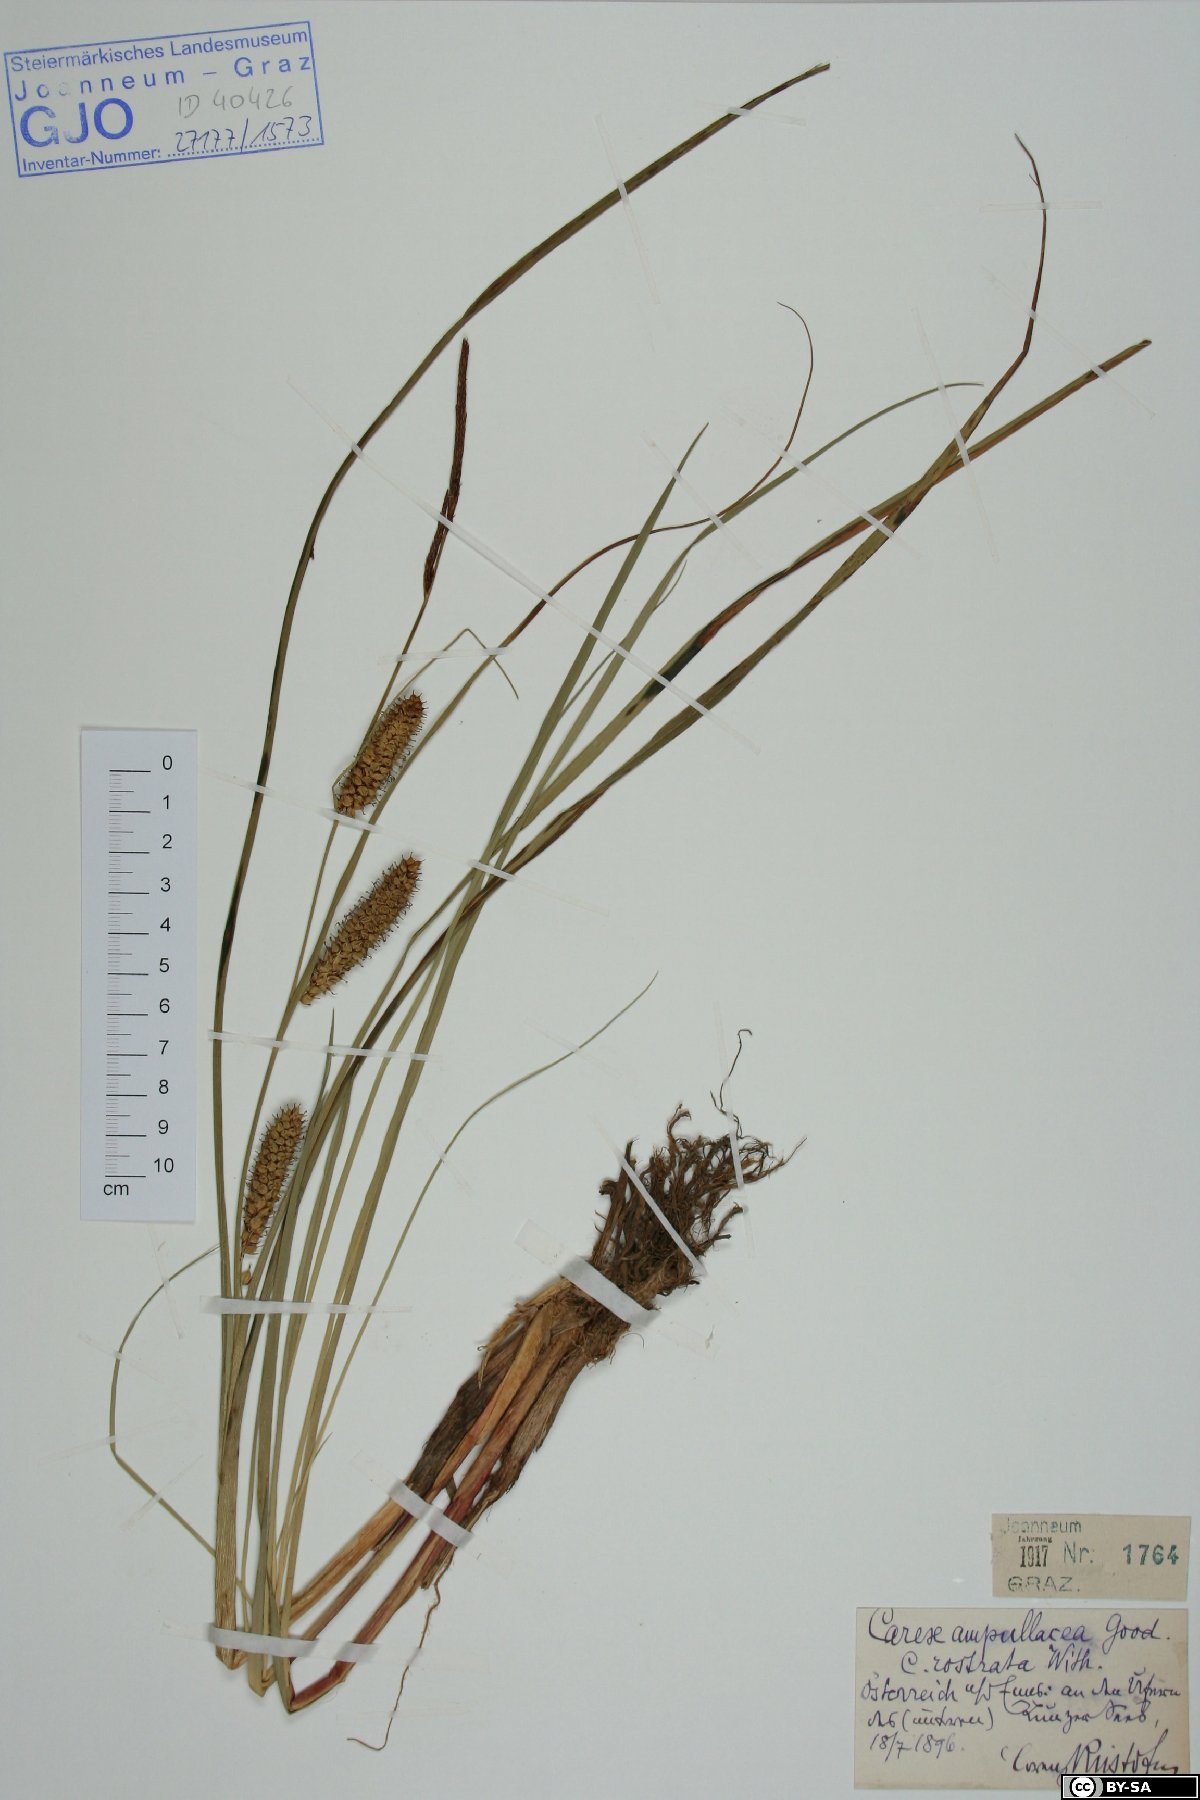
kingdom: Plantae
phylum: Tracheophyta
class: Liliopsida
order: Poales
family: Cyperaceae
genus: Carex
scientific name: Carex rostrata
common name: Bottle sedge
